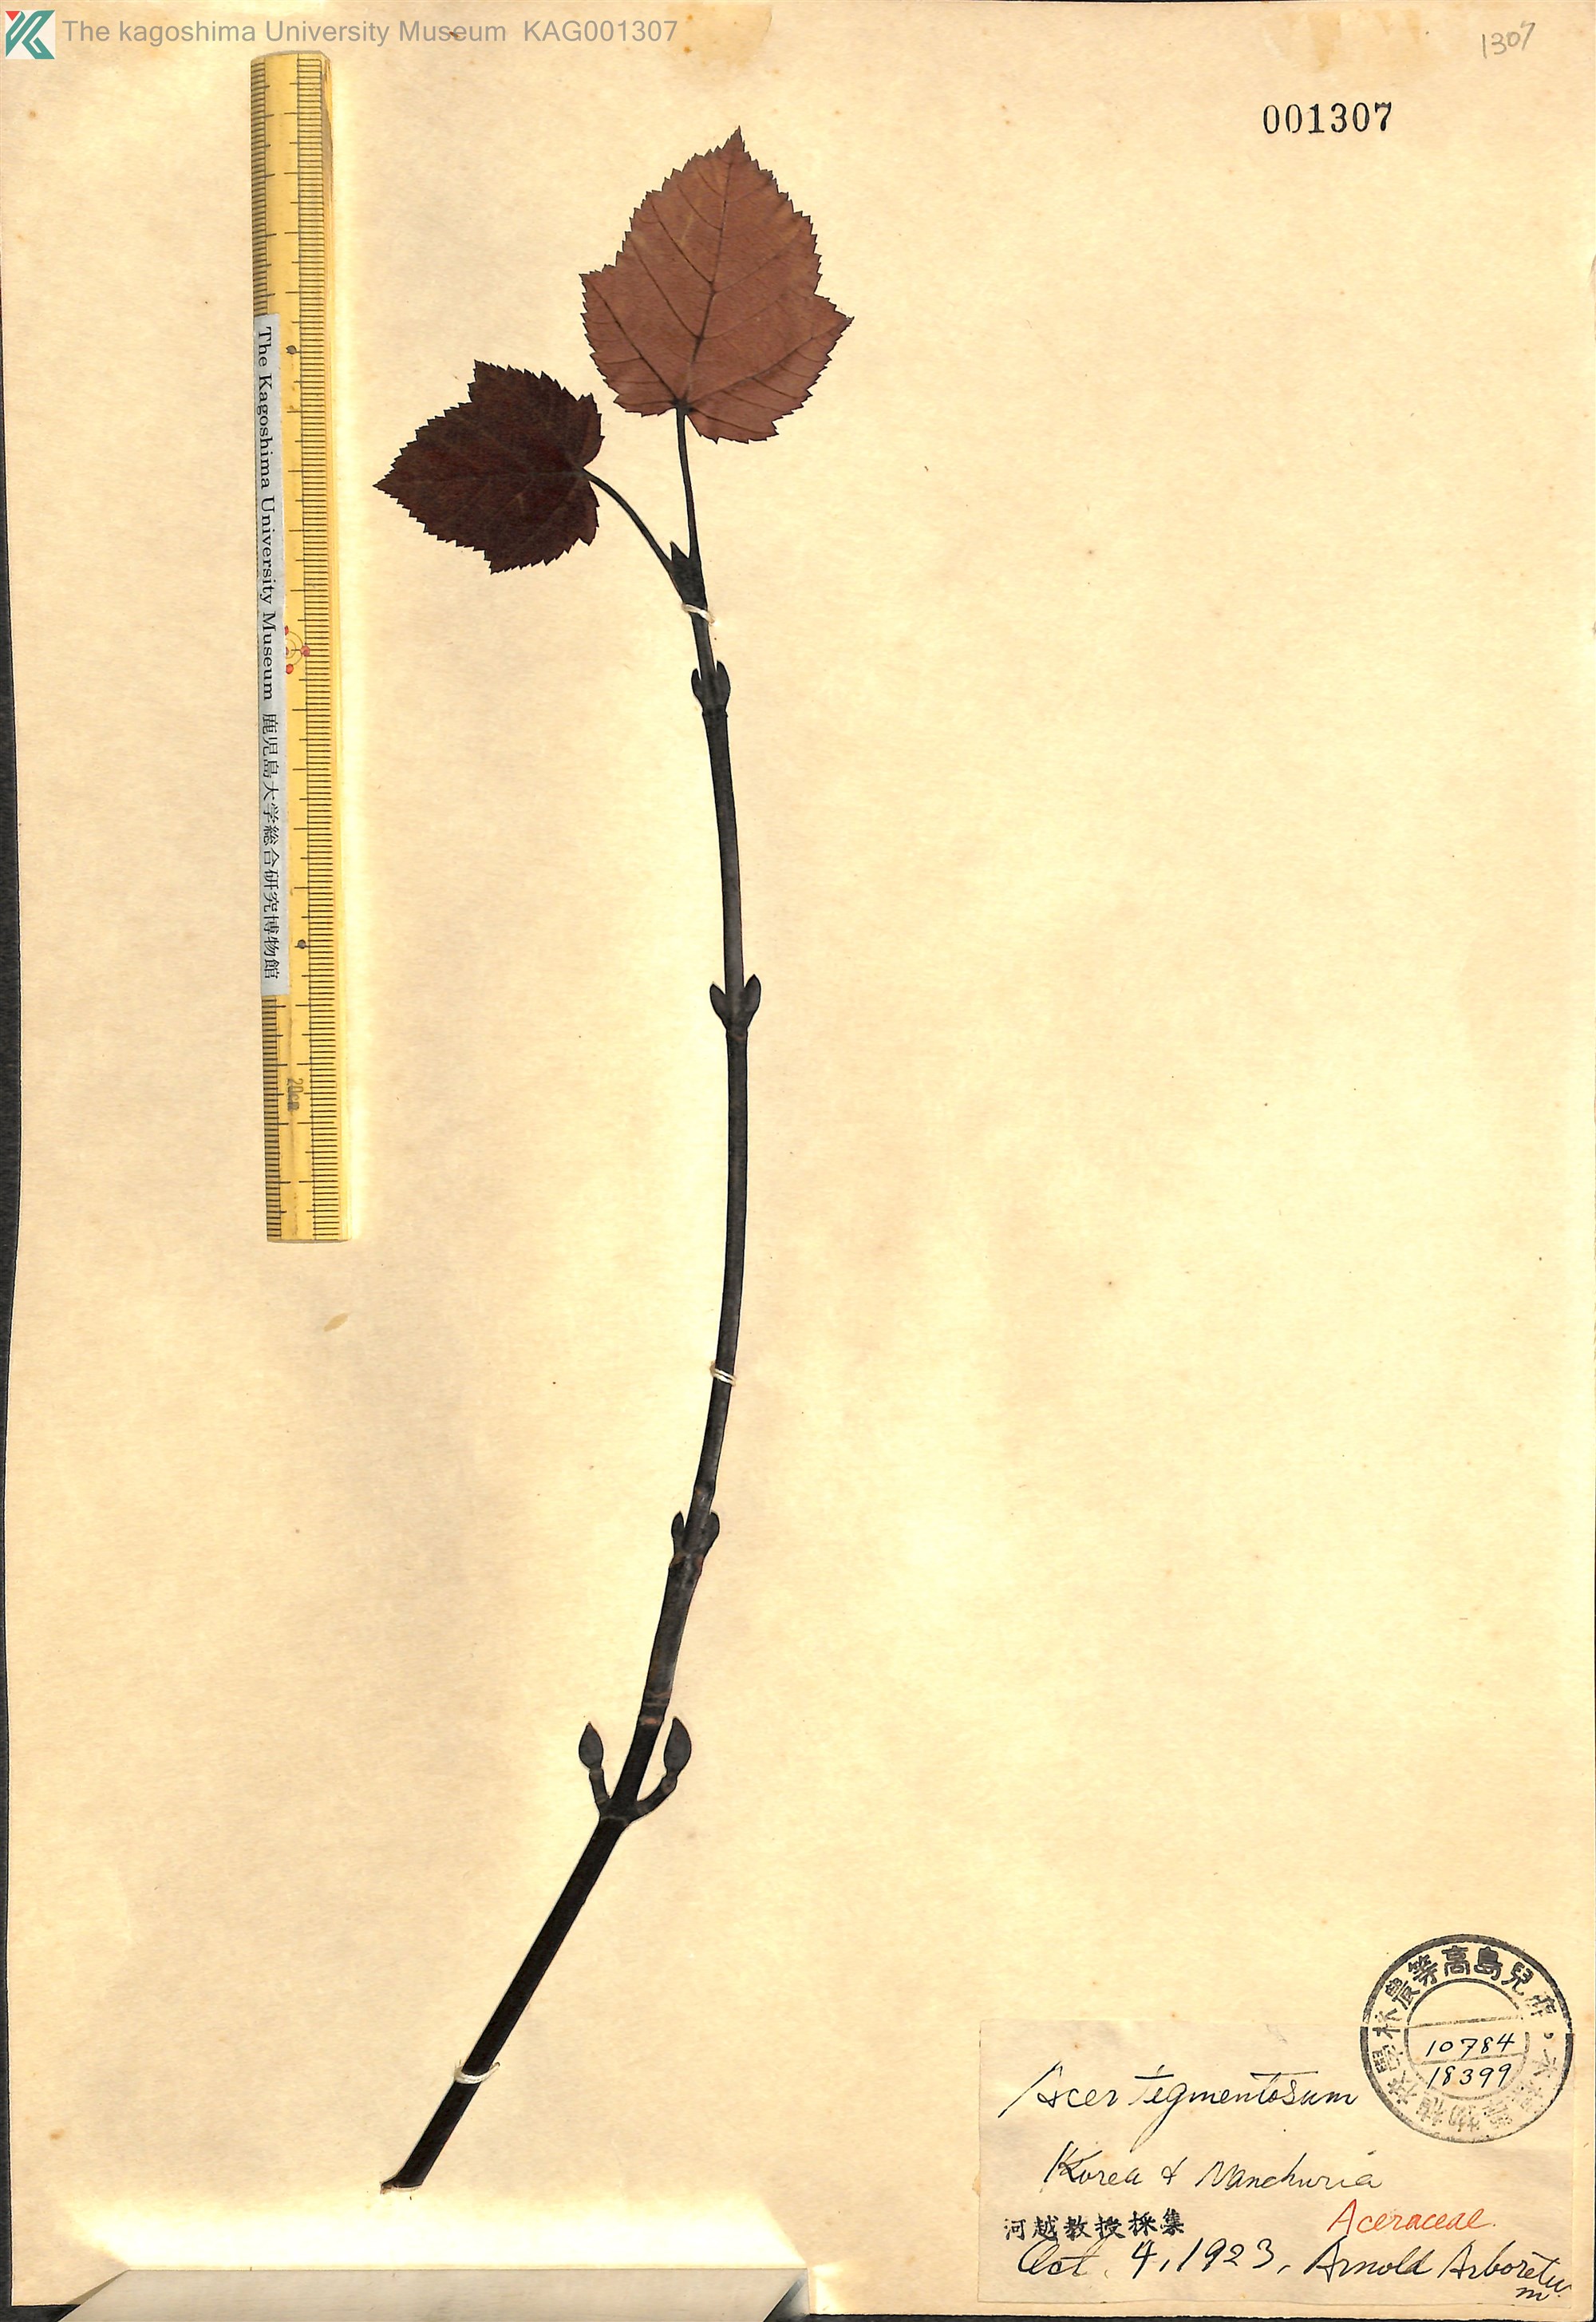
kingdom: Plantae
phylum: Tracheophyta
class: Magnoliopsida
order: Sapindales
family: Sapindaceae
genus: Acer
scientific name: Acer tegmentosum
